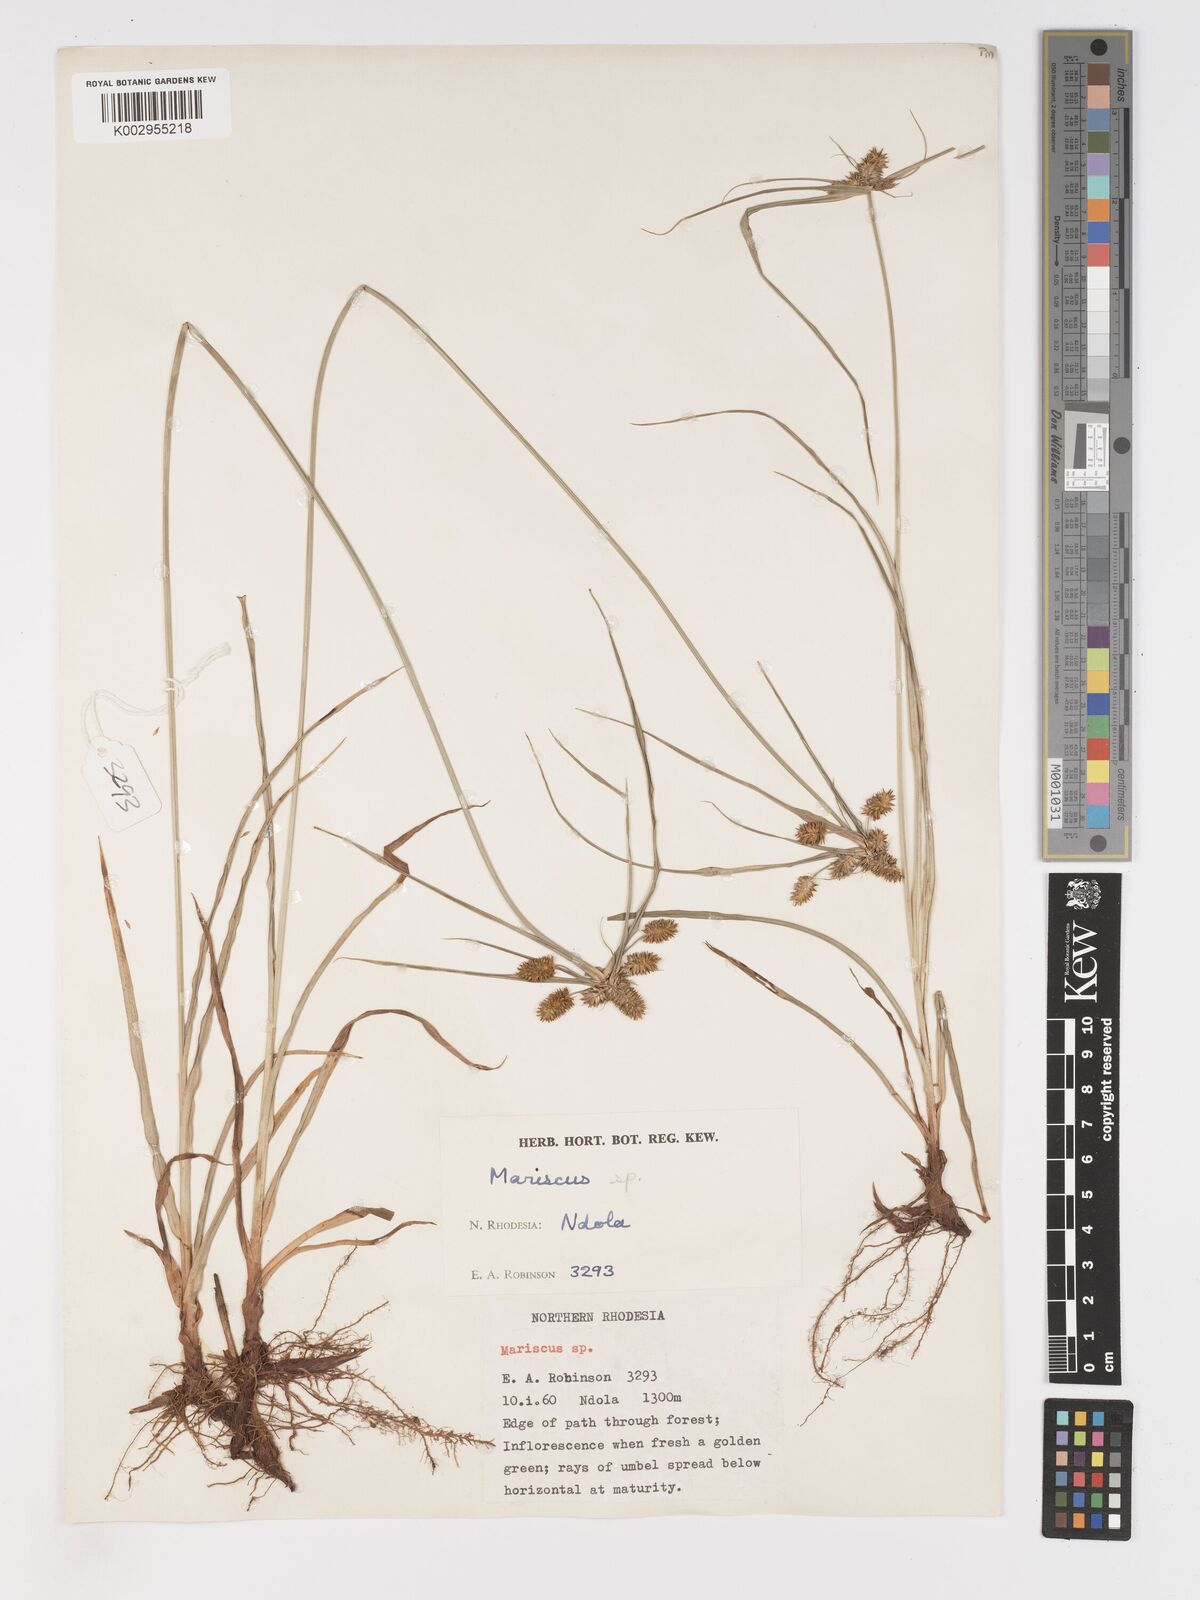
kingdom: Plantae
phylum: Tracheophyta
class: Liliopsida
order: Poales
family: Cyperaceae
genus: Cyperus
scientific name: Cyperus
